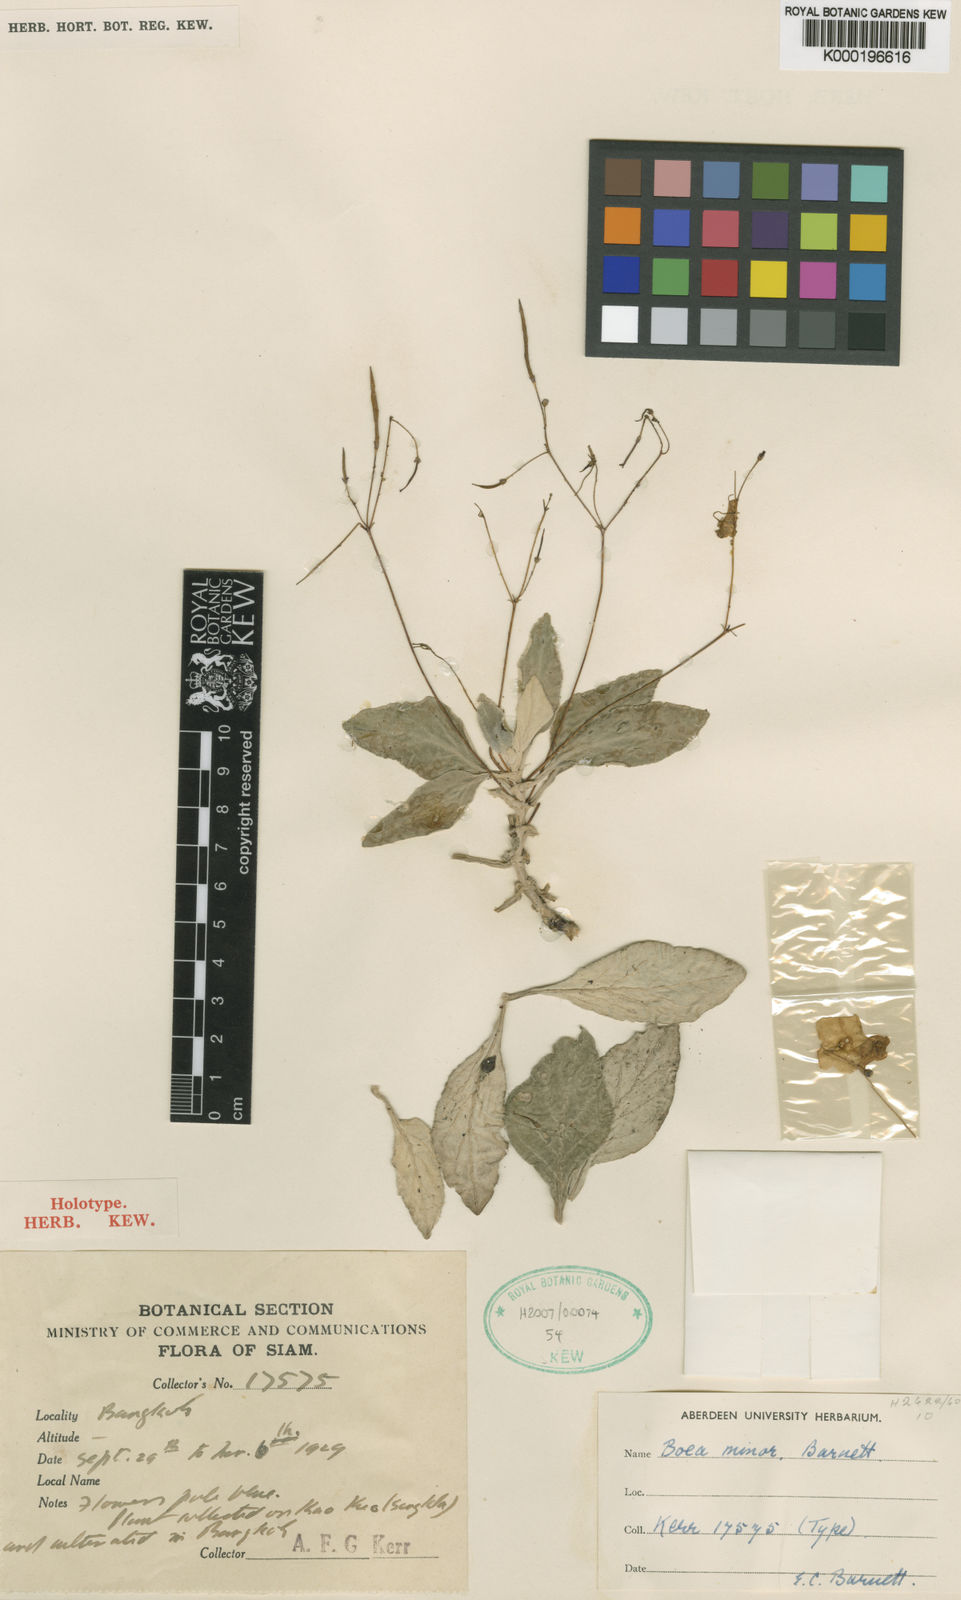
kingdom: Plantae
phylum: Tracheophyta
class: Magnoliopsida
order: Lamiales
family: Gesneriaceae
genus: Paraboea
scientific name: Paraboea minor
